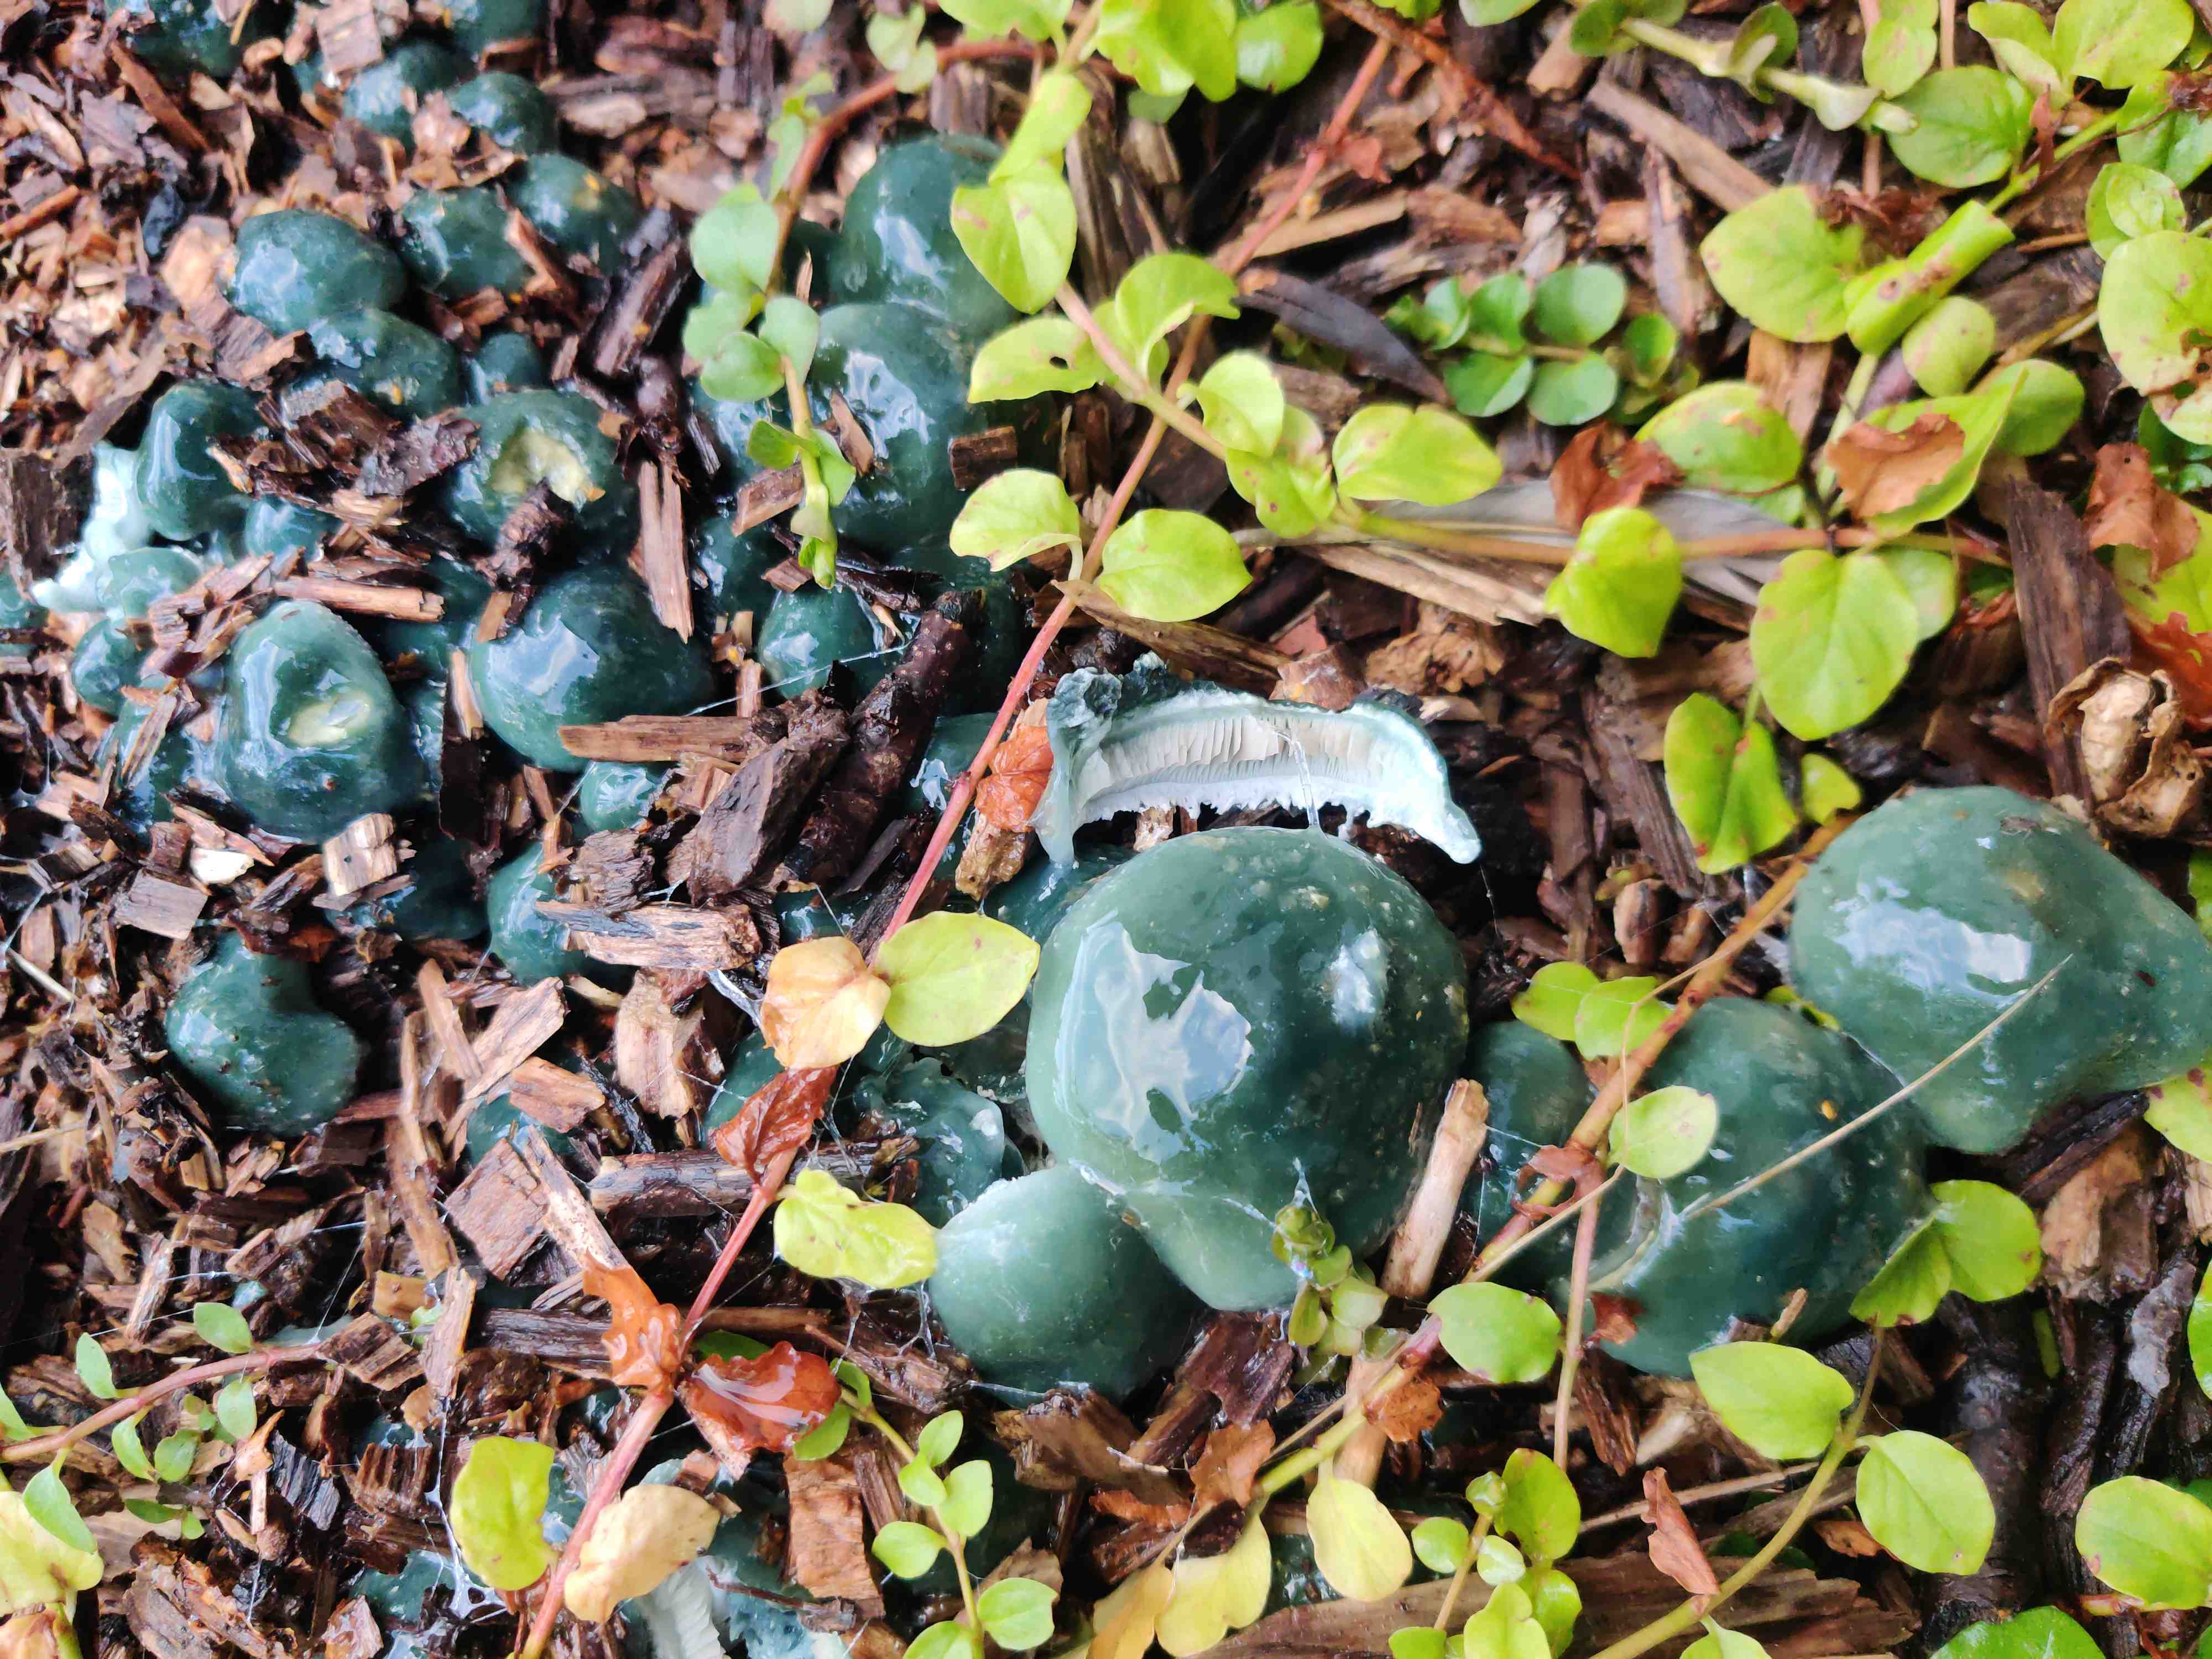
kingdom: Fungi
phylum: Basidiomycota
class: Agaricomycetes
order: Agaricales
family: Strophariaceae
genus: Stropharia
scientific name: Stropharia
